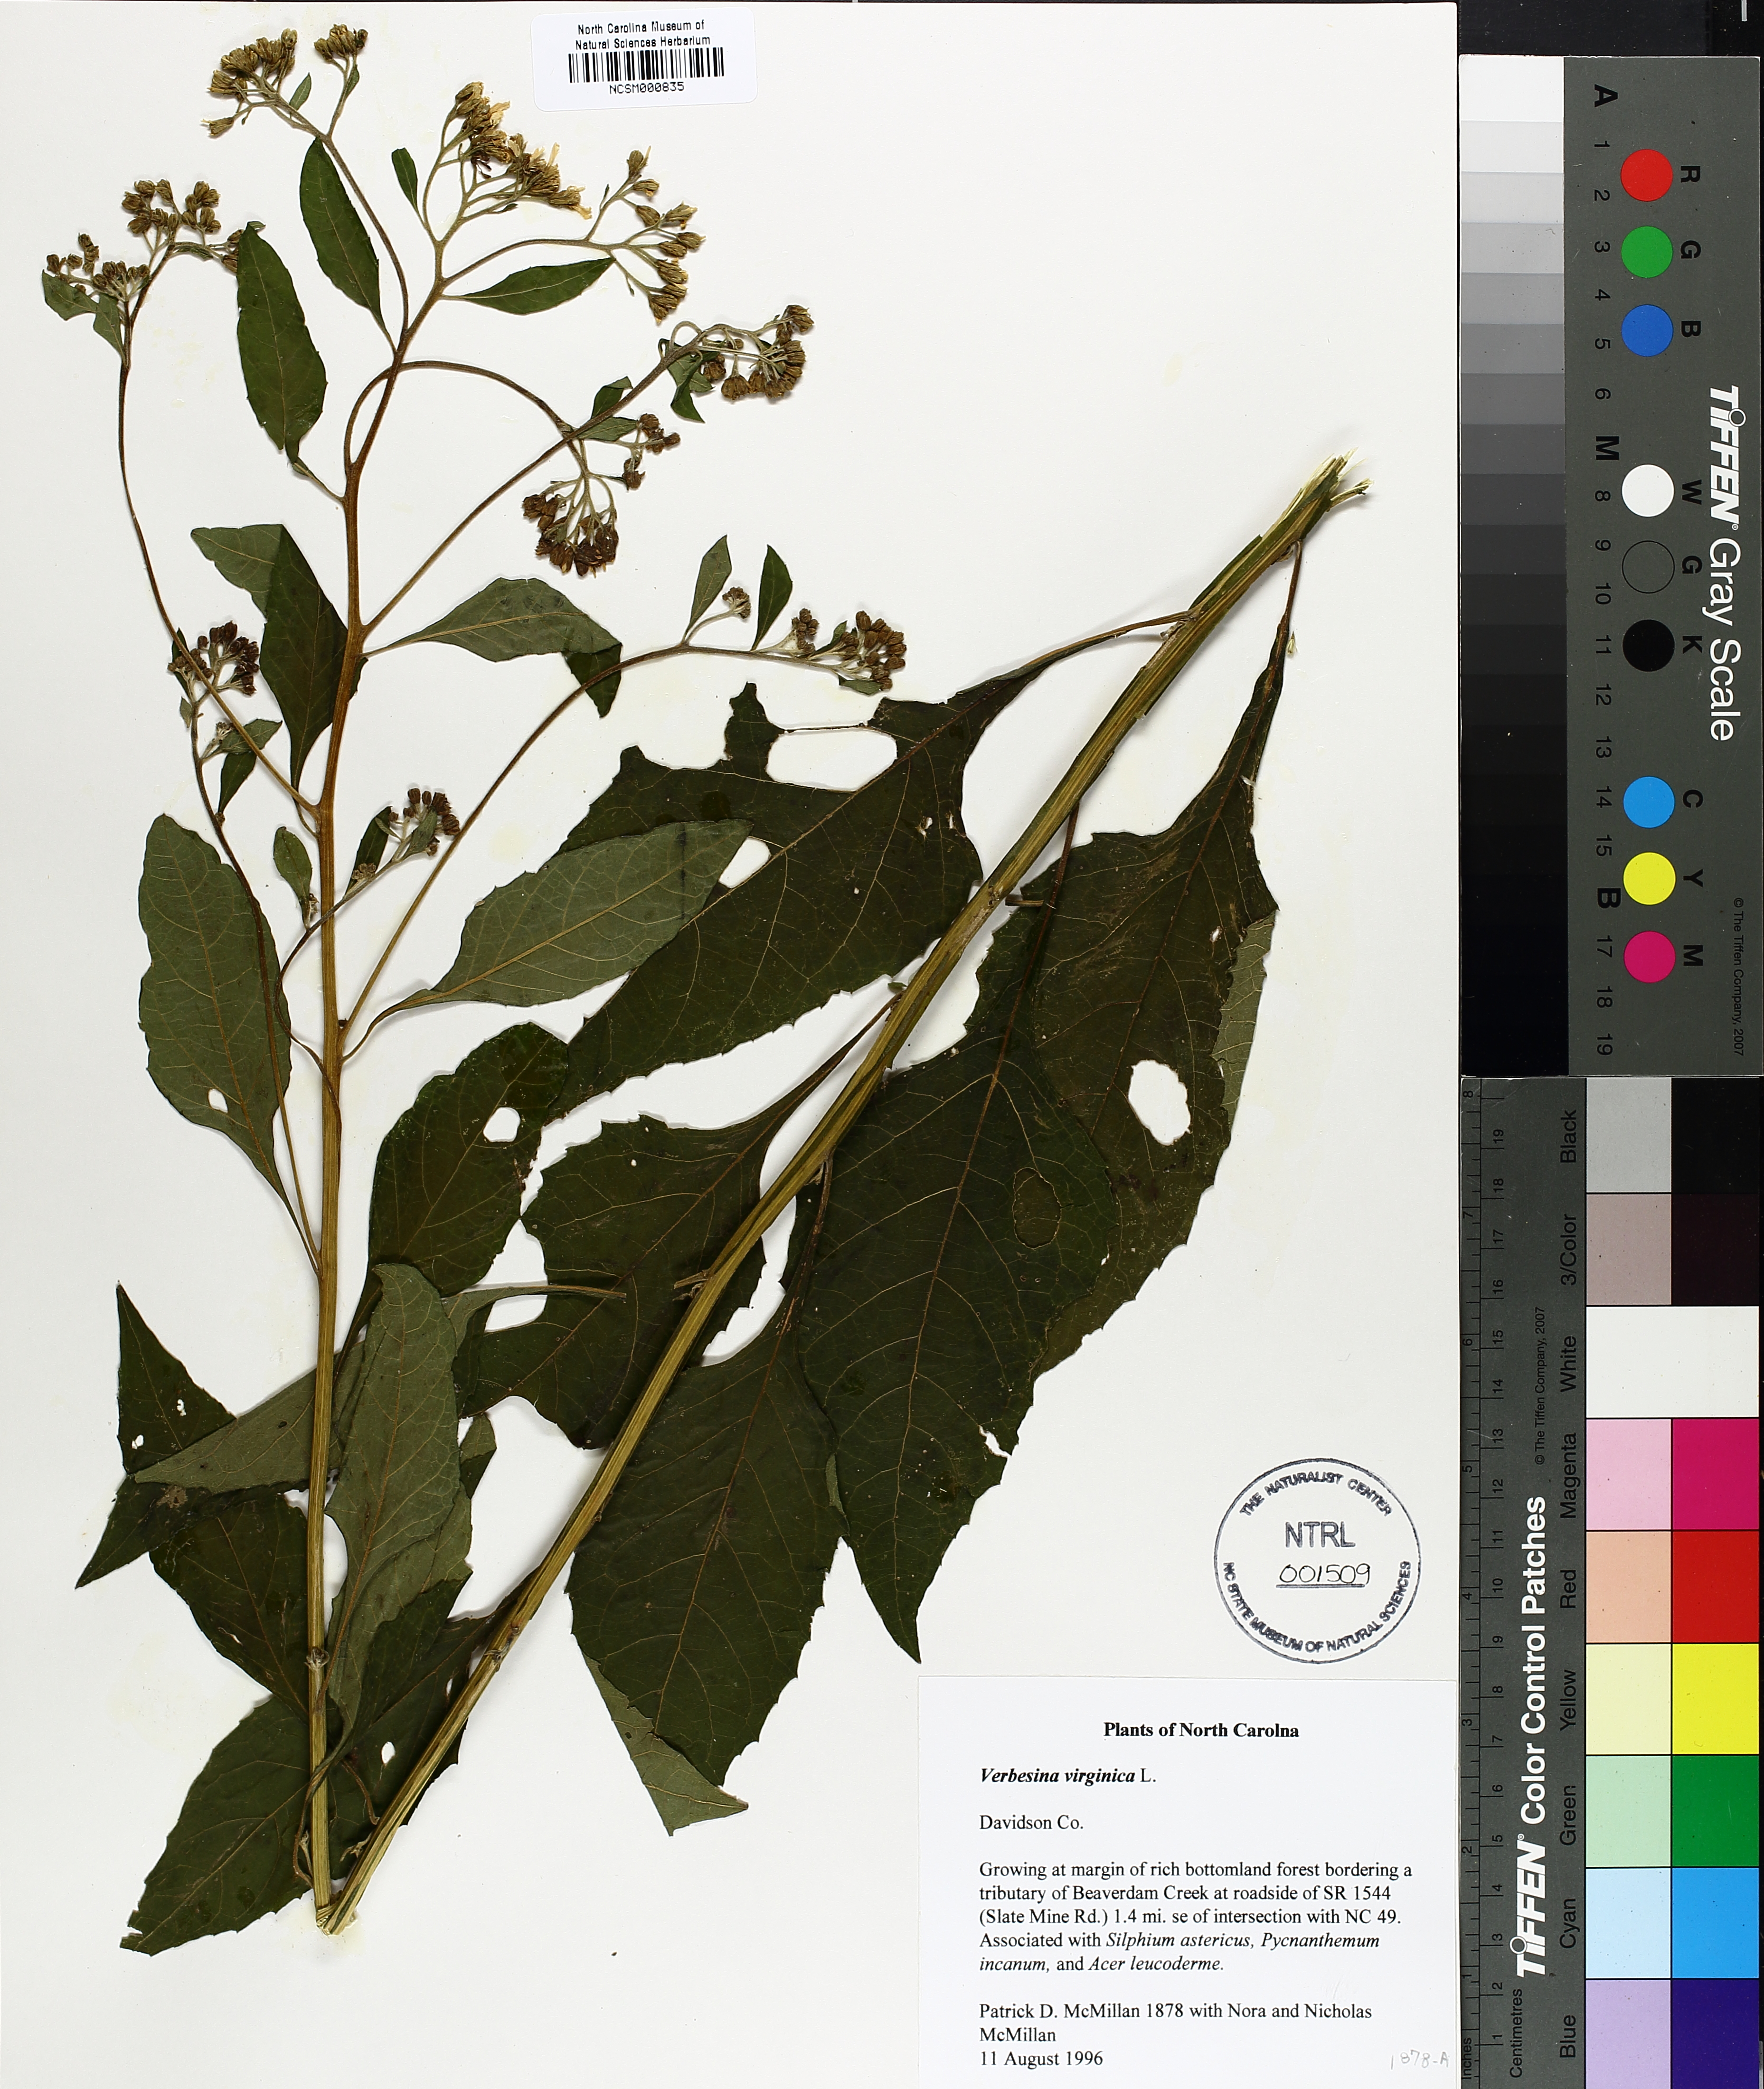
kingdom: Plantae
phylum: Tracheophyta
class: Magnoliopsida
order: Asterales
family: Asteraceae
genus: Verbesina
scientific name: Verbesina virginica
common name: Frostweed
